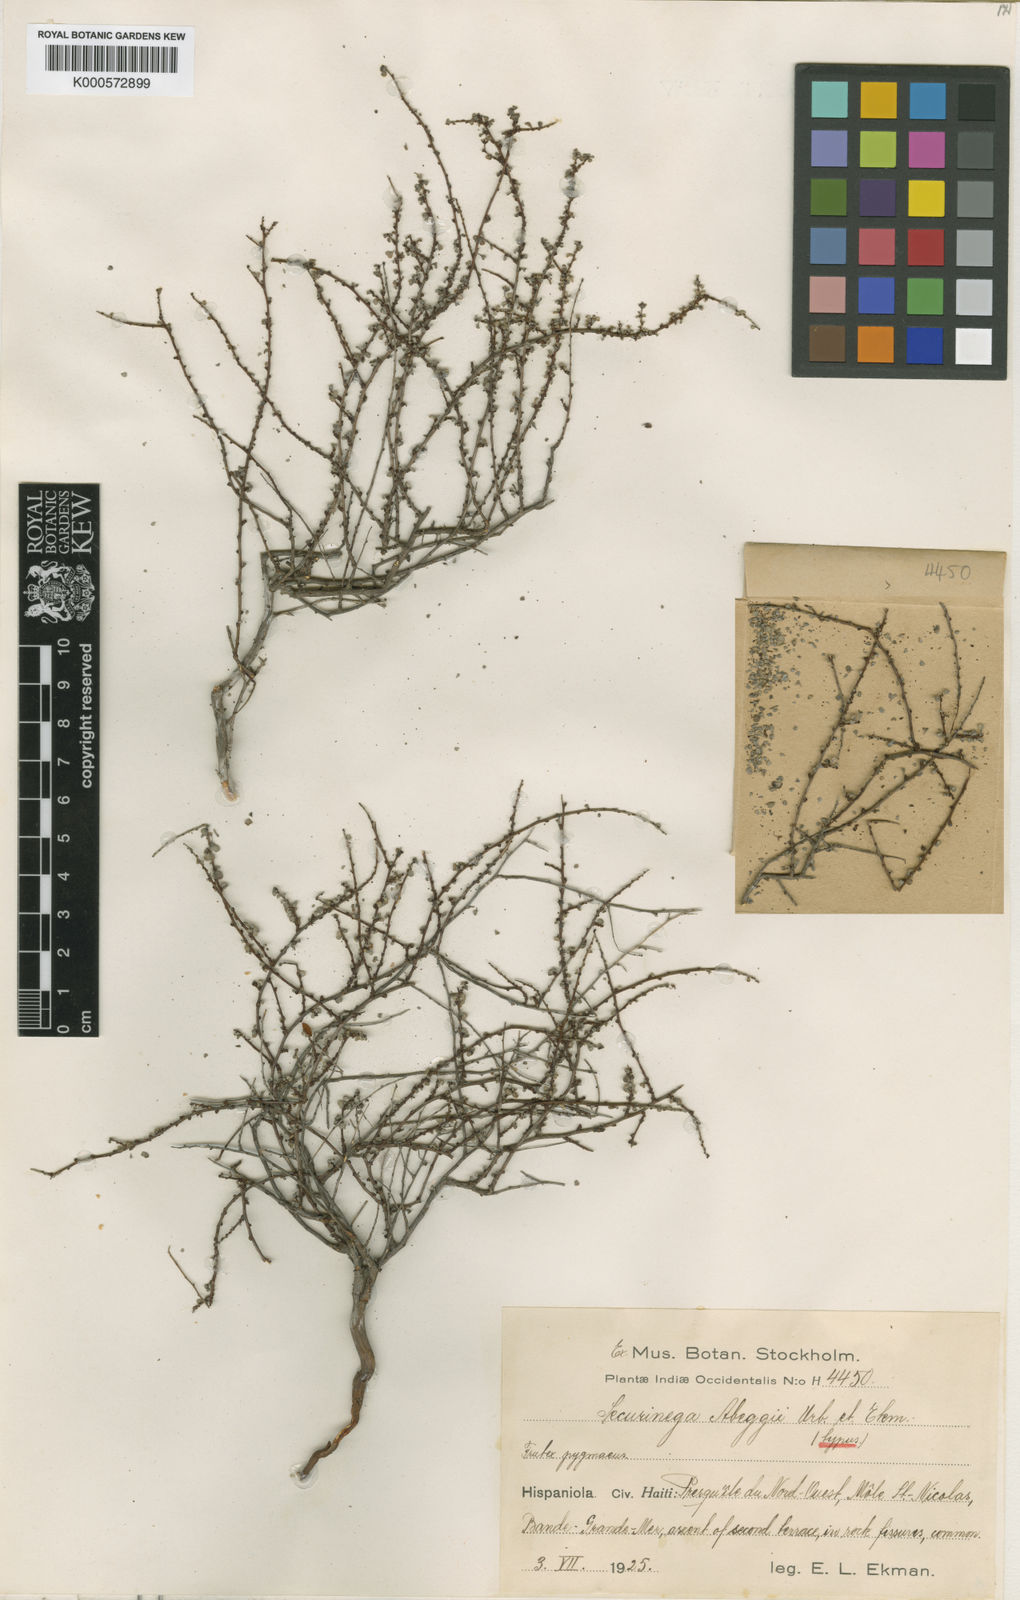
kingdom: Plantae
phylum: Tracheophyta
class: Magnoliopsida
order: Malpighiales
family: Phyllanthaceae
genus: Flueggea
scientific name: Flueggea
